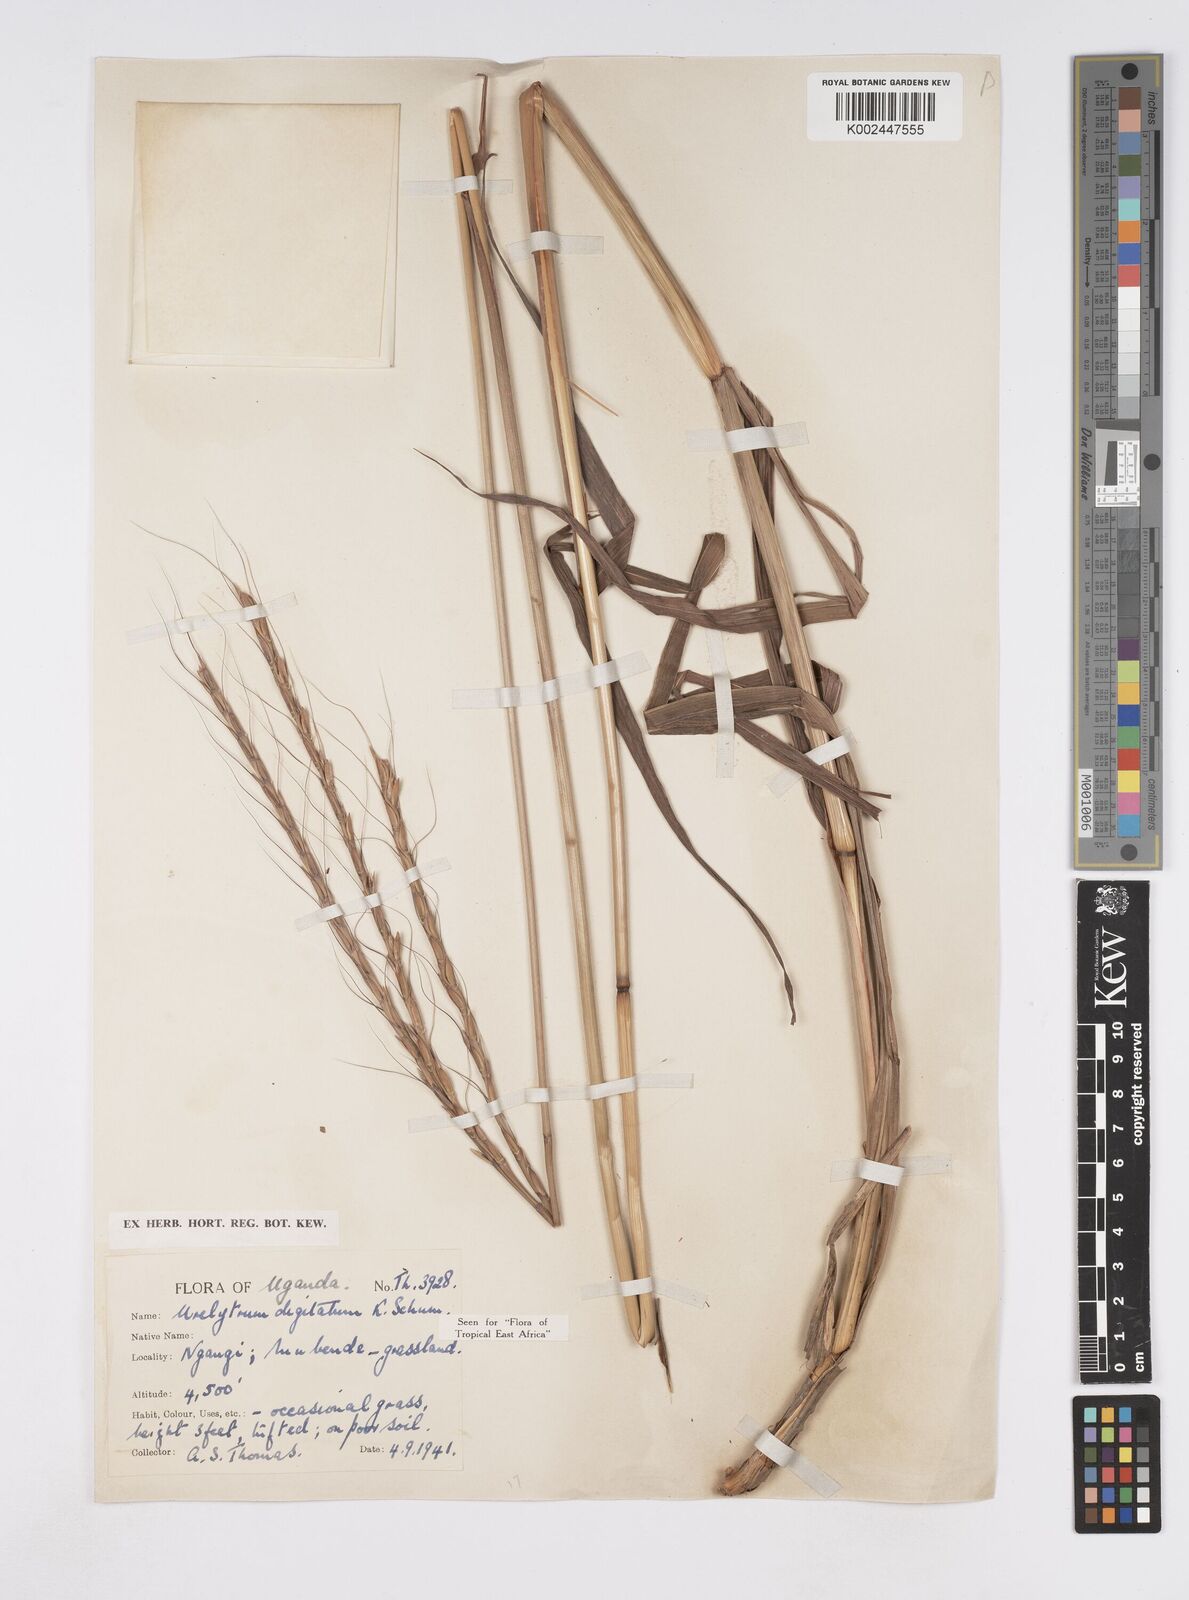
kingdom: Plantae
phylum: Tracheophyta
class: Liliopsida
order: Poales
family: Poaceae
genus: Urelytrum
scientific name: Urelytrum digitatum
